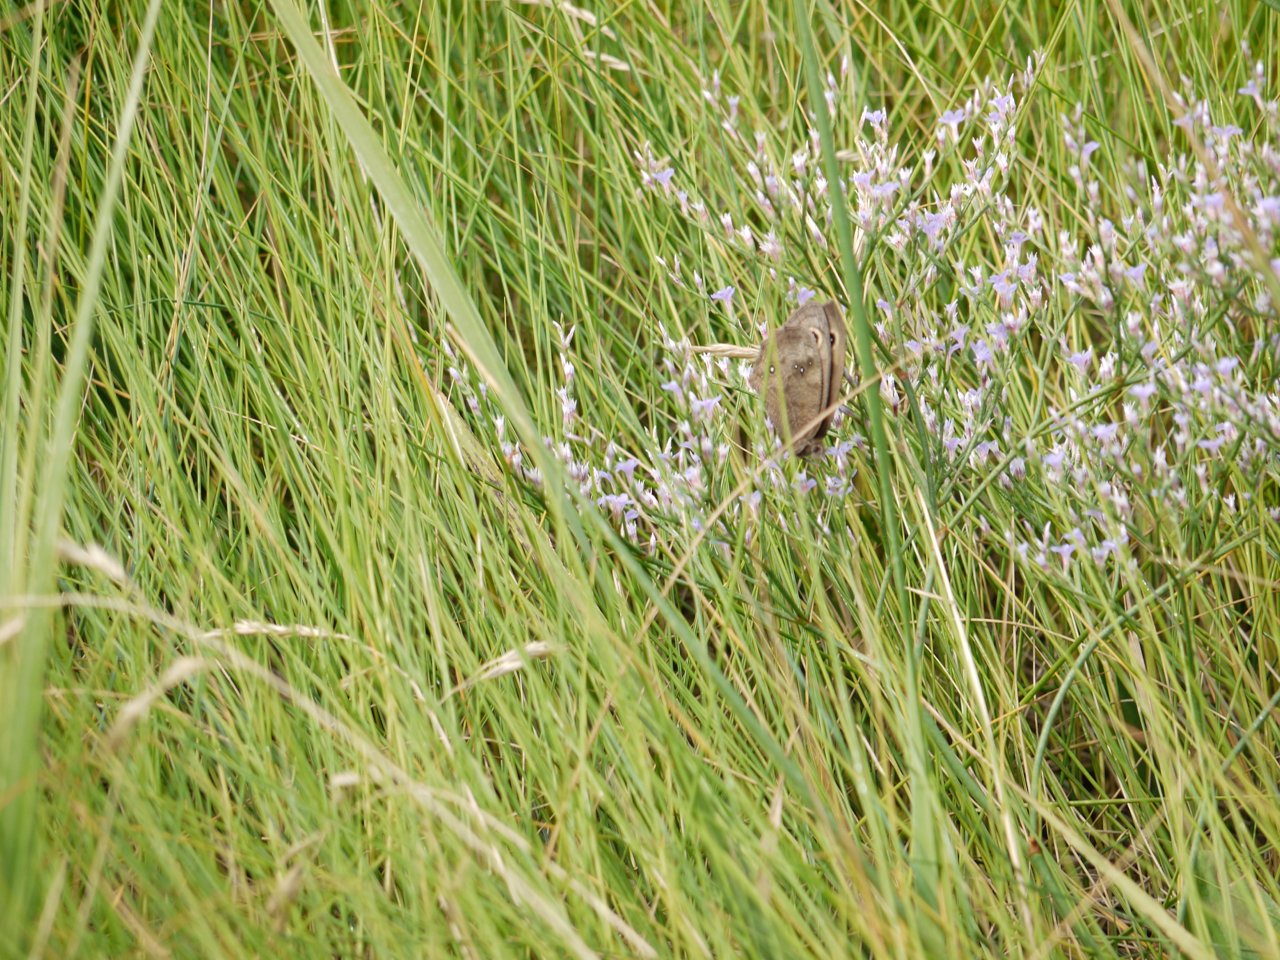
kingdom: Animalia
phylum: Arthropoda
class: Insecta
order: Lepidoptera
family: Nymphalidae
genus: Cercyonis
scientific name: Cercyonis pegala
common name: Common Wood-Nymph
